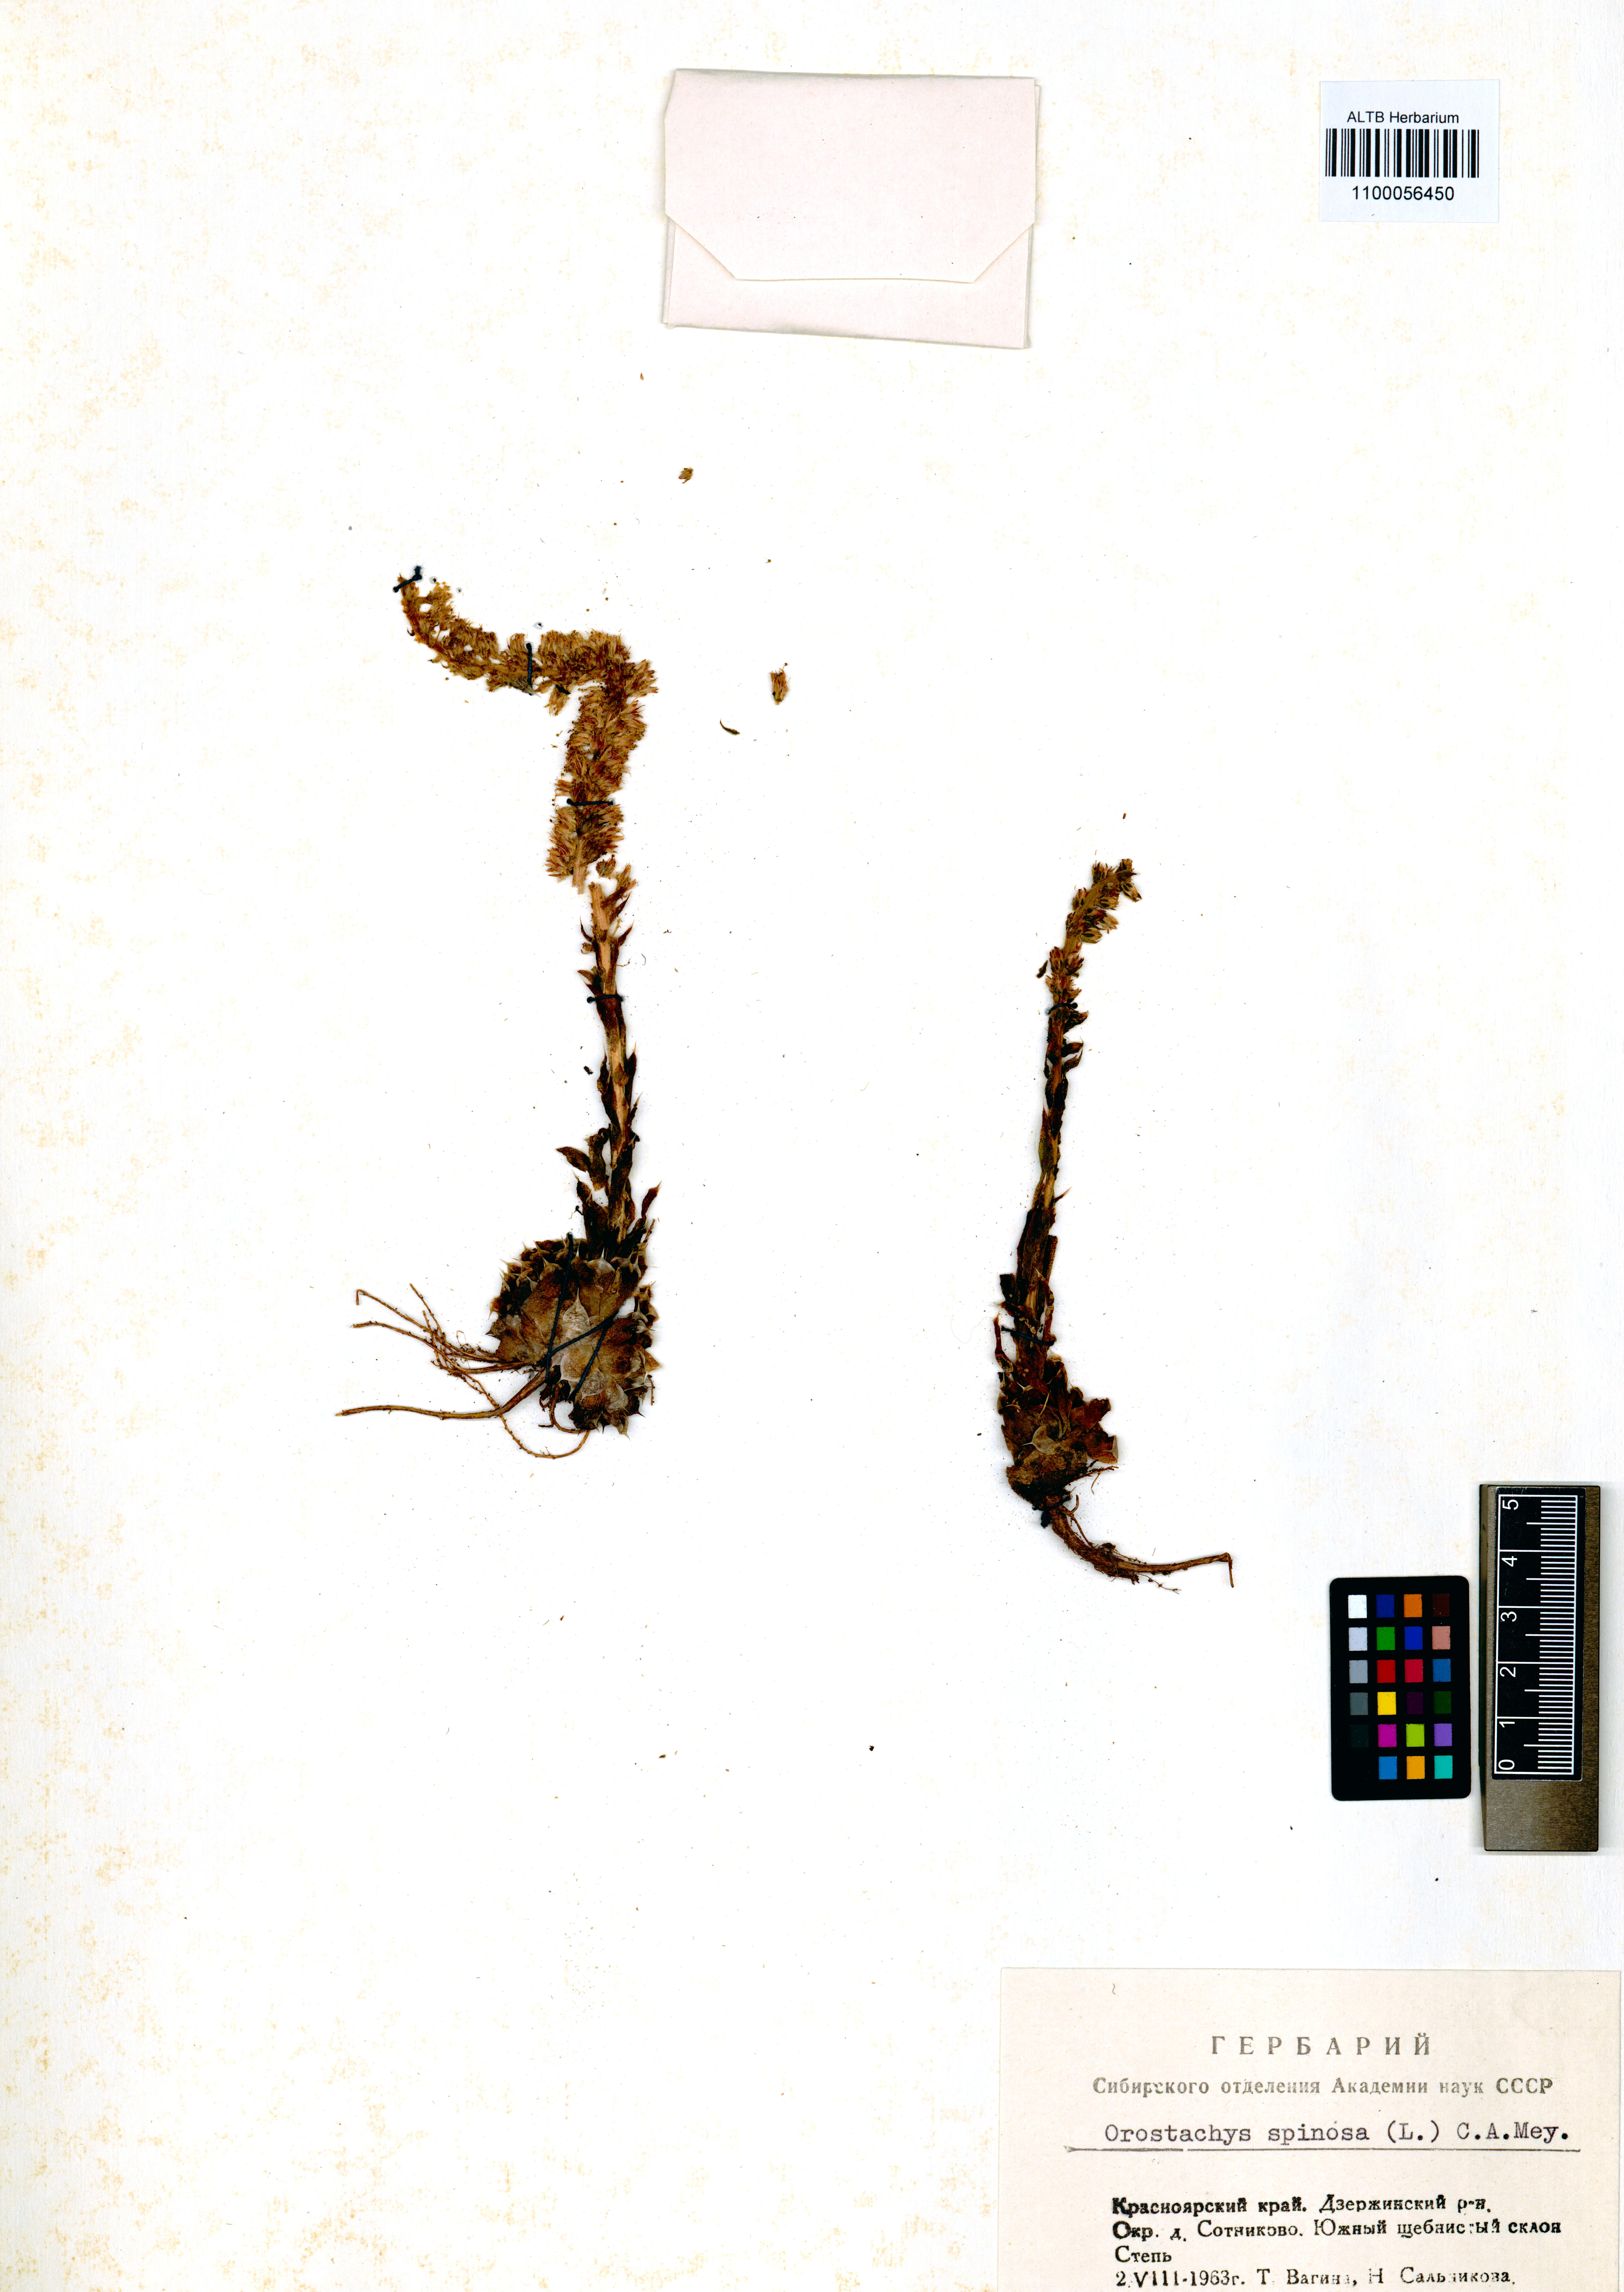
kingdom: Plantae
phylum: Tracheophyta
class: Magnoliopsida
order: Saxifragales
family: Crassulaceae
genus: Orostachys
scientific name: Orostachys spinosa
